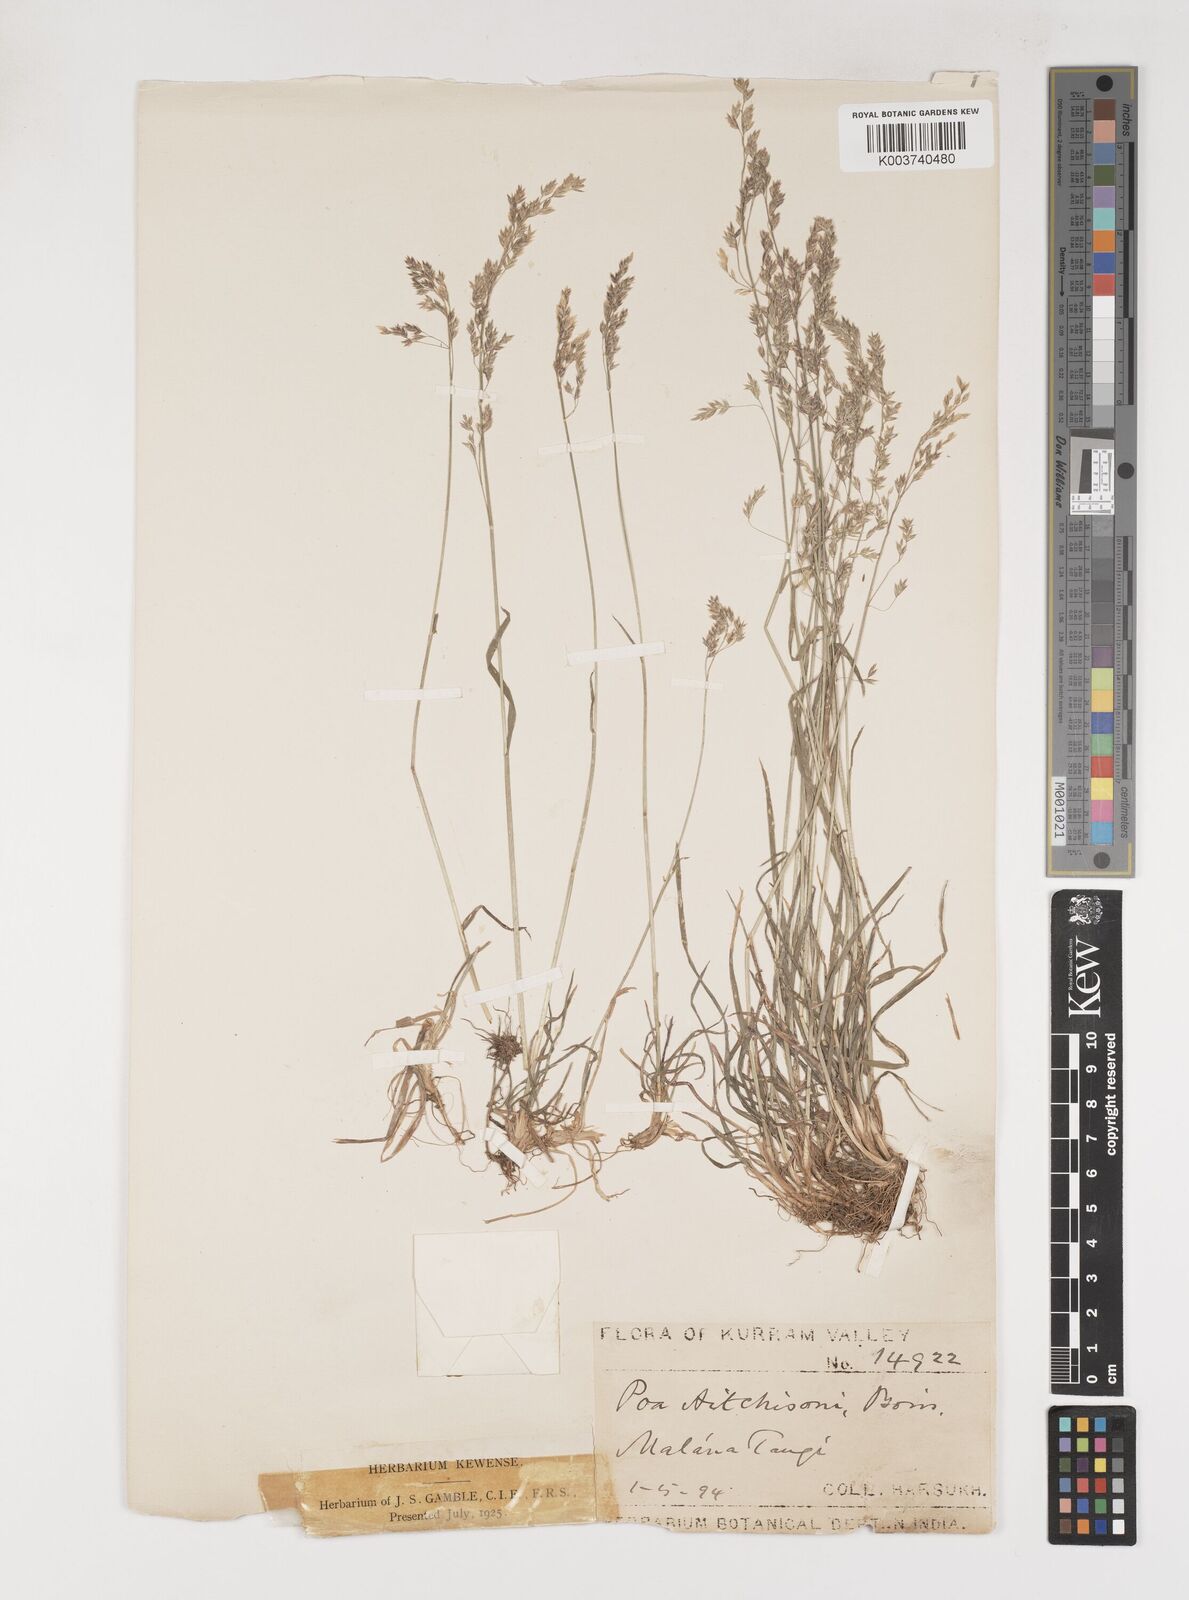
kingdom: Plantae
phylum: Tracheophyta
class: Liliopsida
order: Poales
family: Poaceae
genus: Poa
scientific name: Poa aitchisonii
